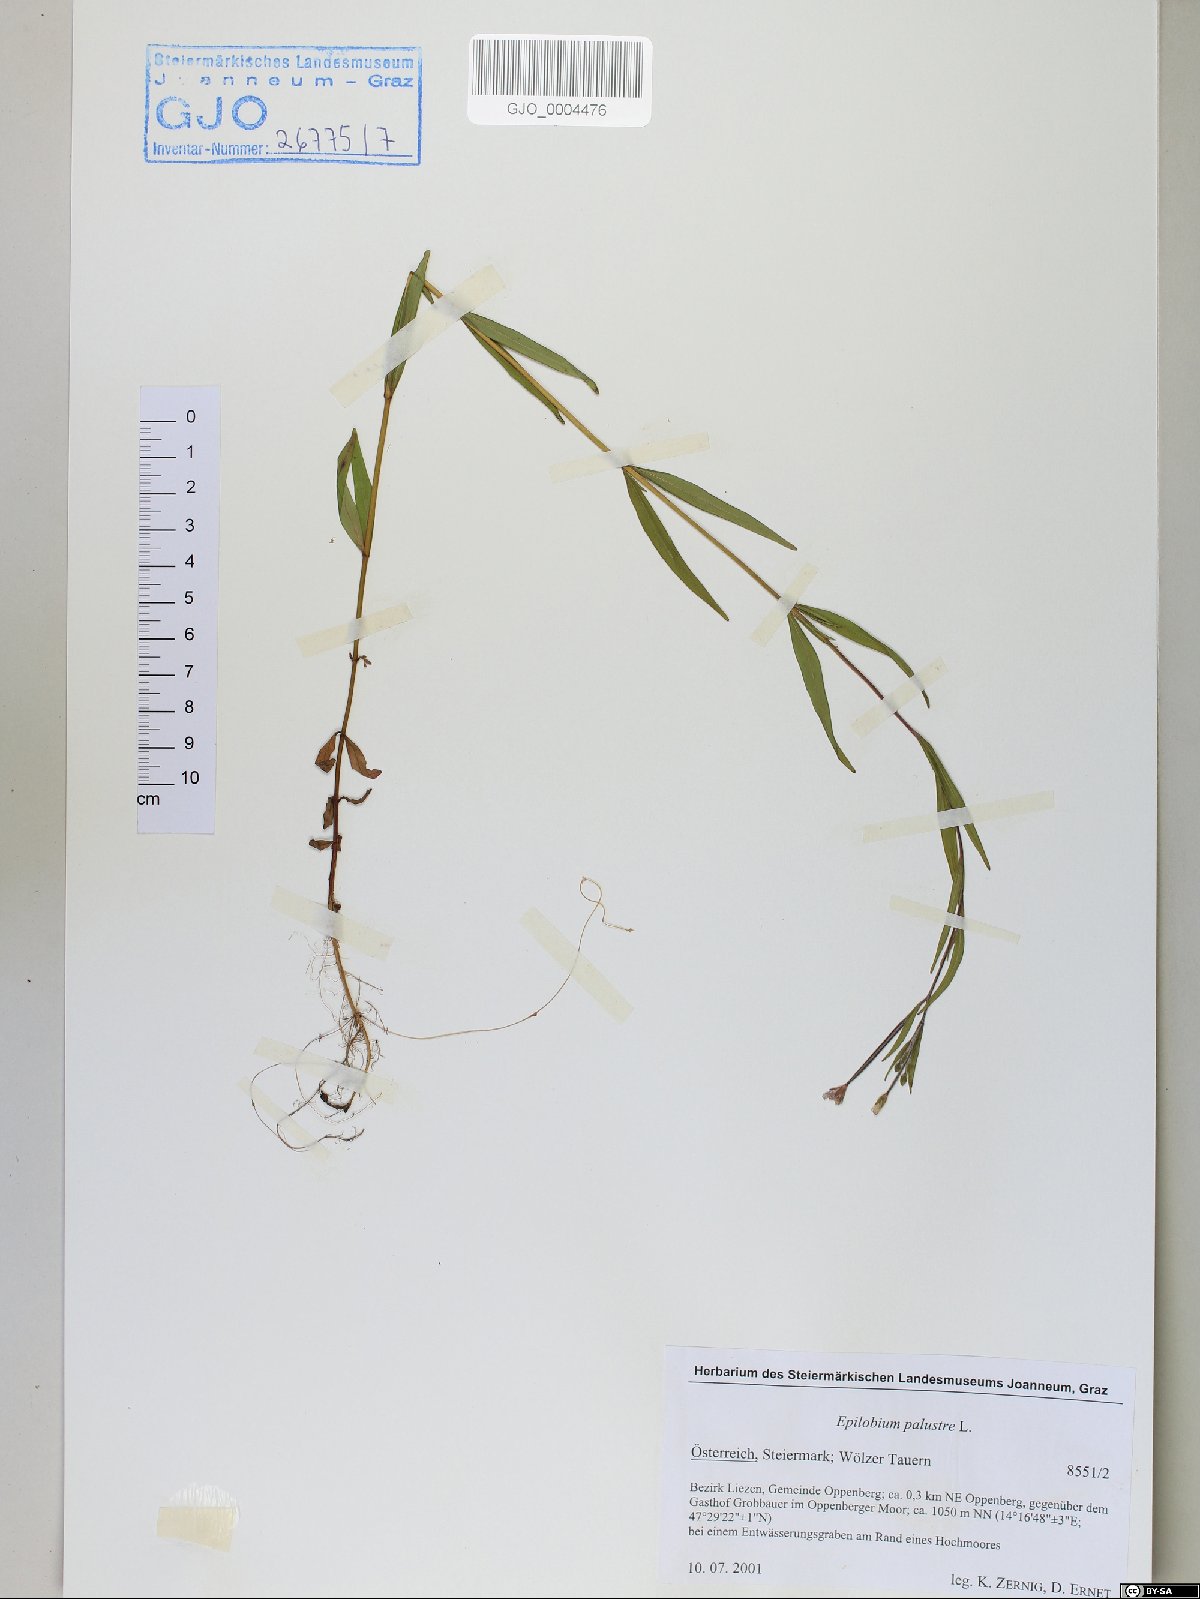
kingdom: Plantae
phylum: Tracheophyta
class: Magnoliopsida
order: Myrtales
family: Onagraceae
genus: Epilobium
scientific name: Epilobium palustre
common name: Marsh willowherb
